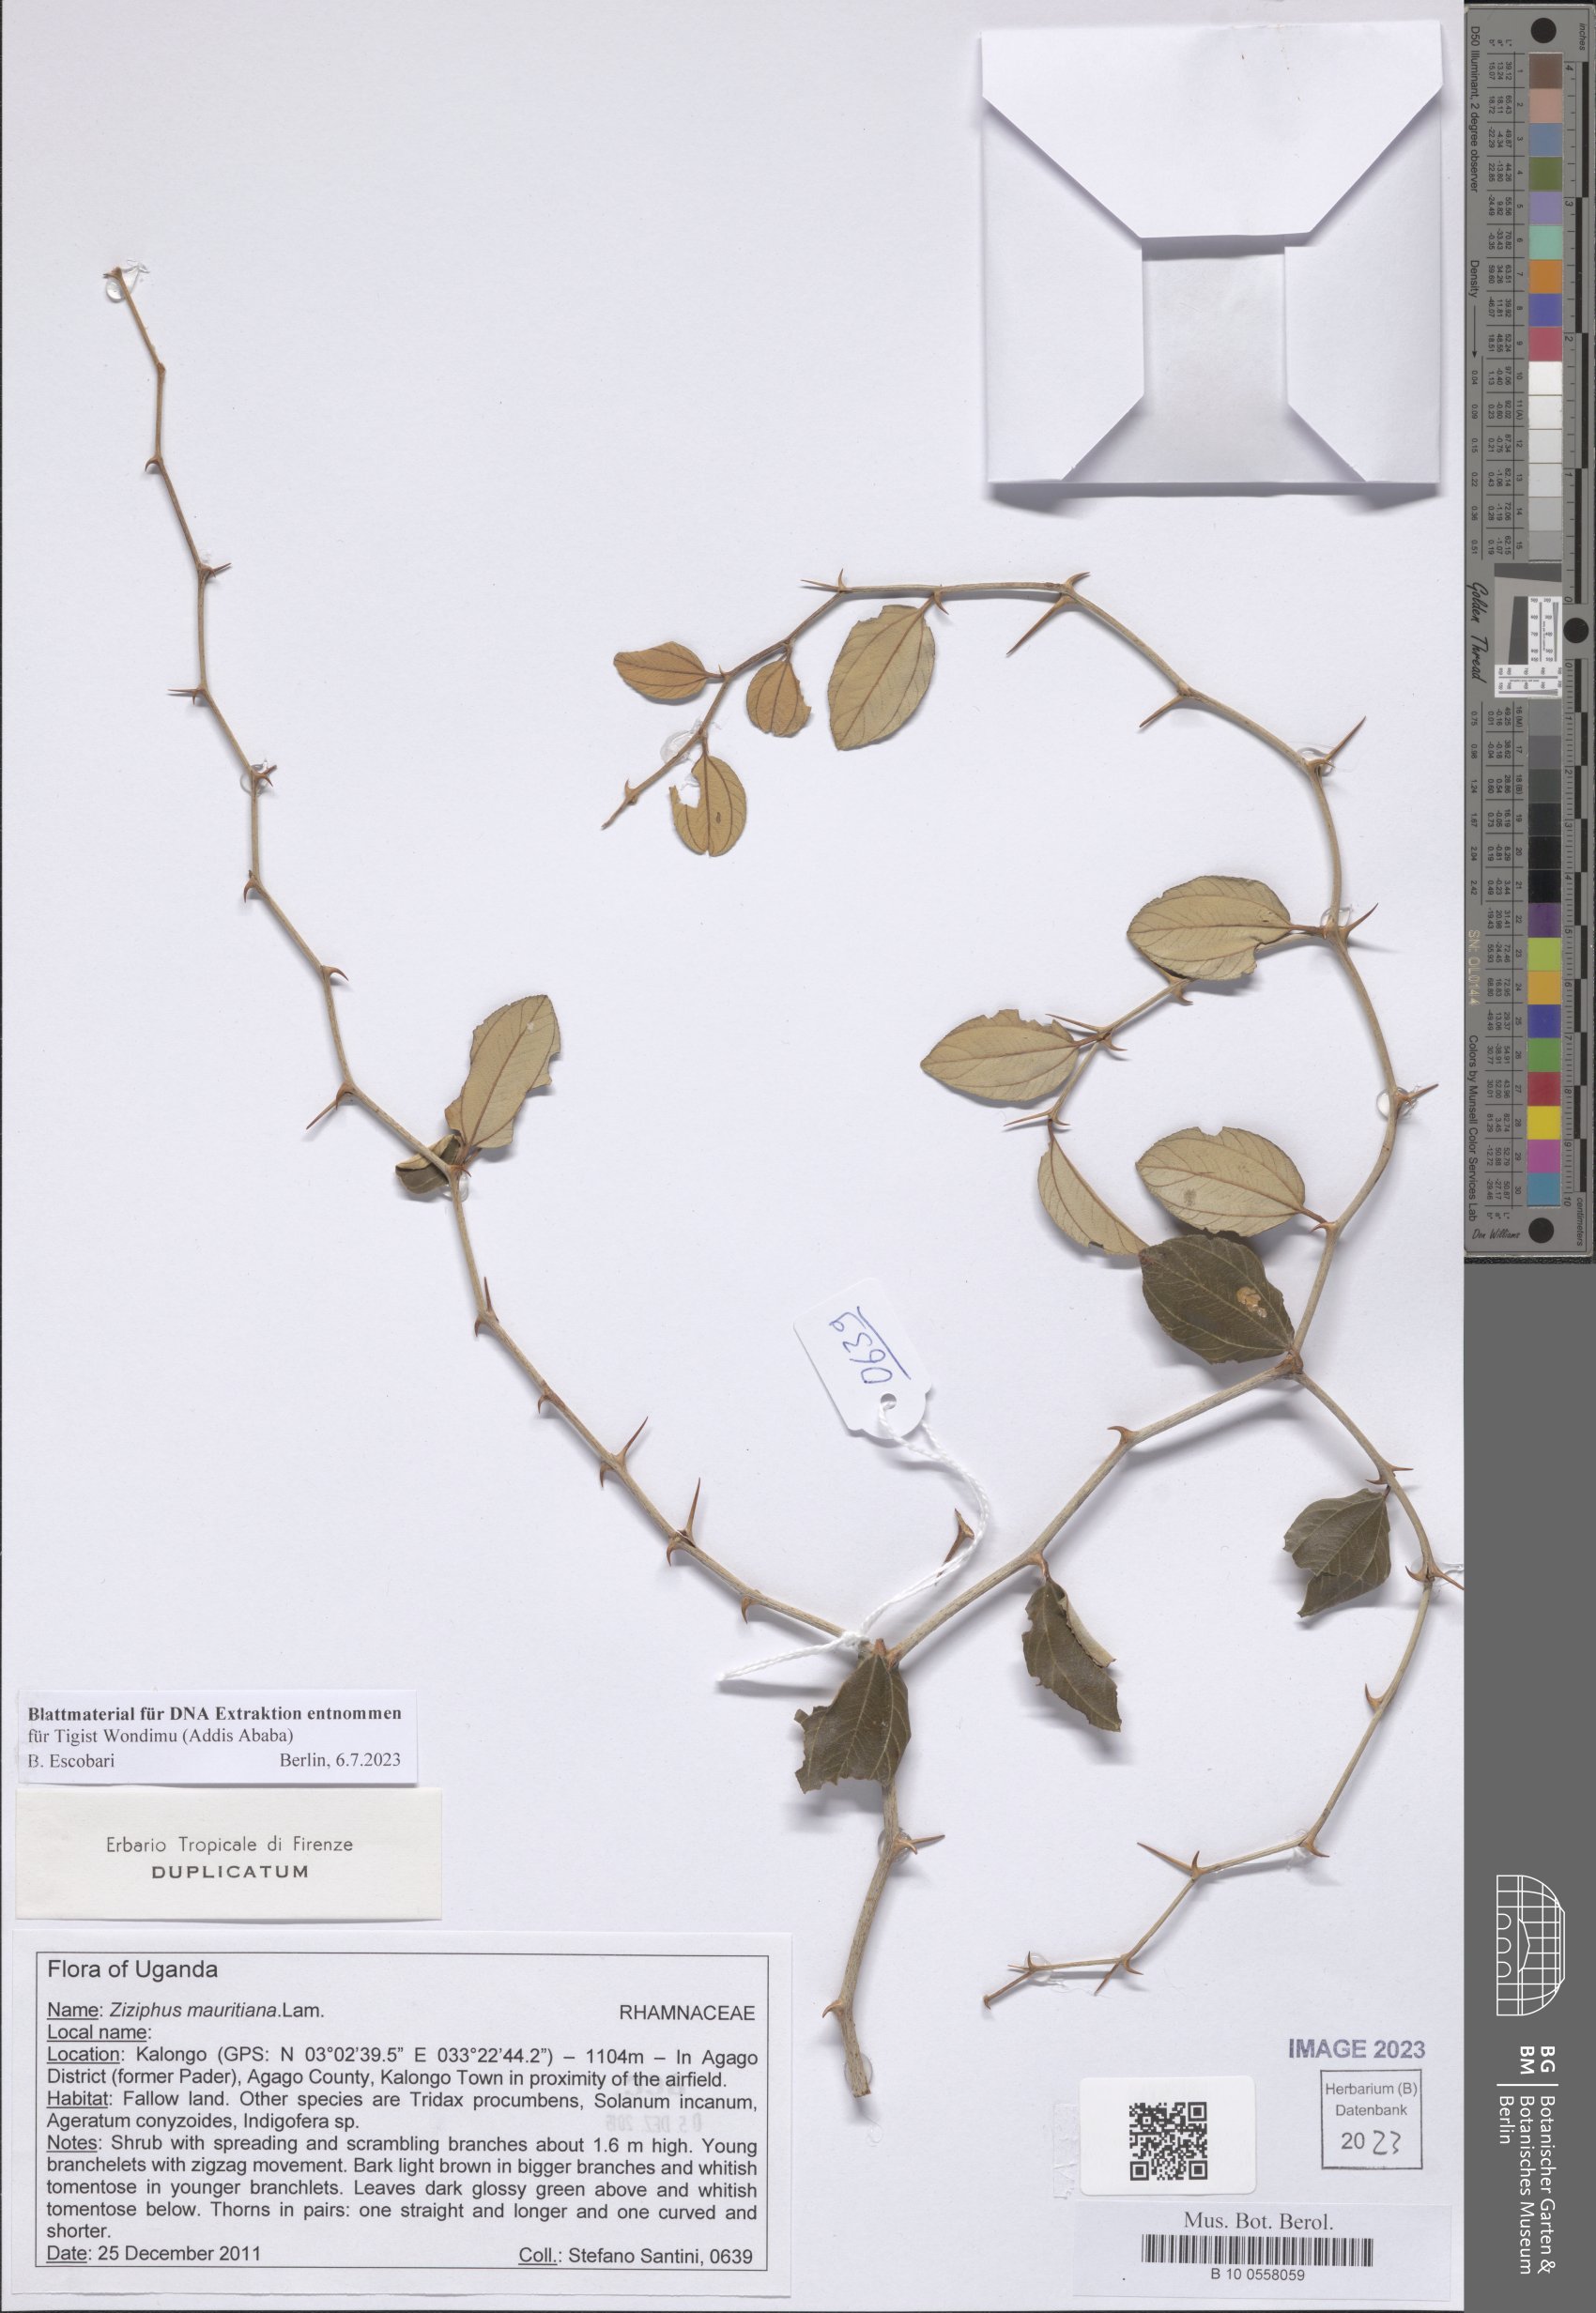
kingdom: Plantae
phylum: Tracheophyta
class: Magnoliopsida
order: Rosales
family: Rhamnaceae
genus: Ziziphus
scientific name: Ziziphus mauritiana
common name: Indian jujube
